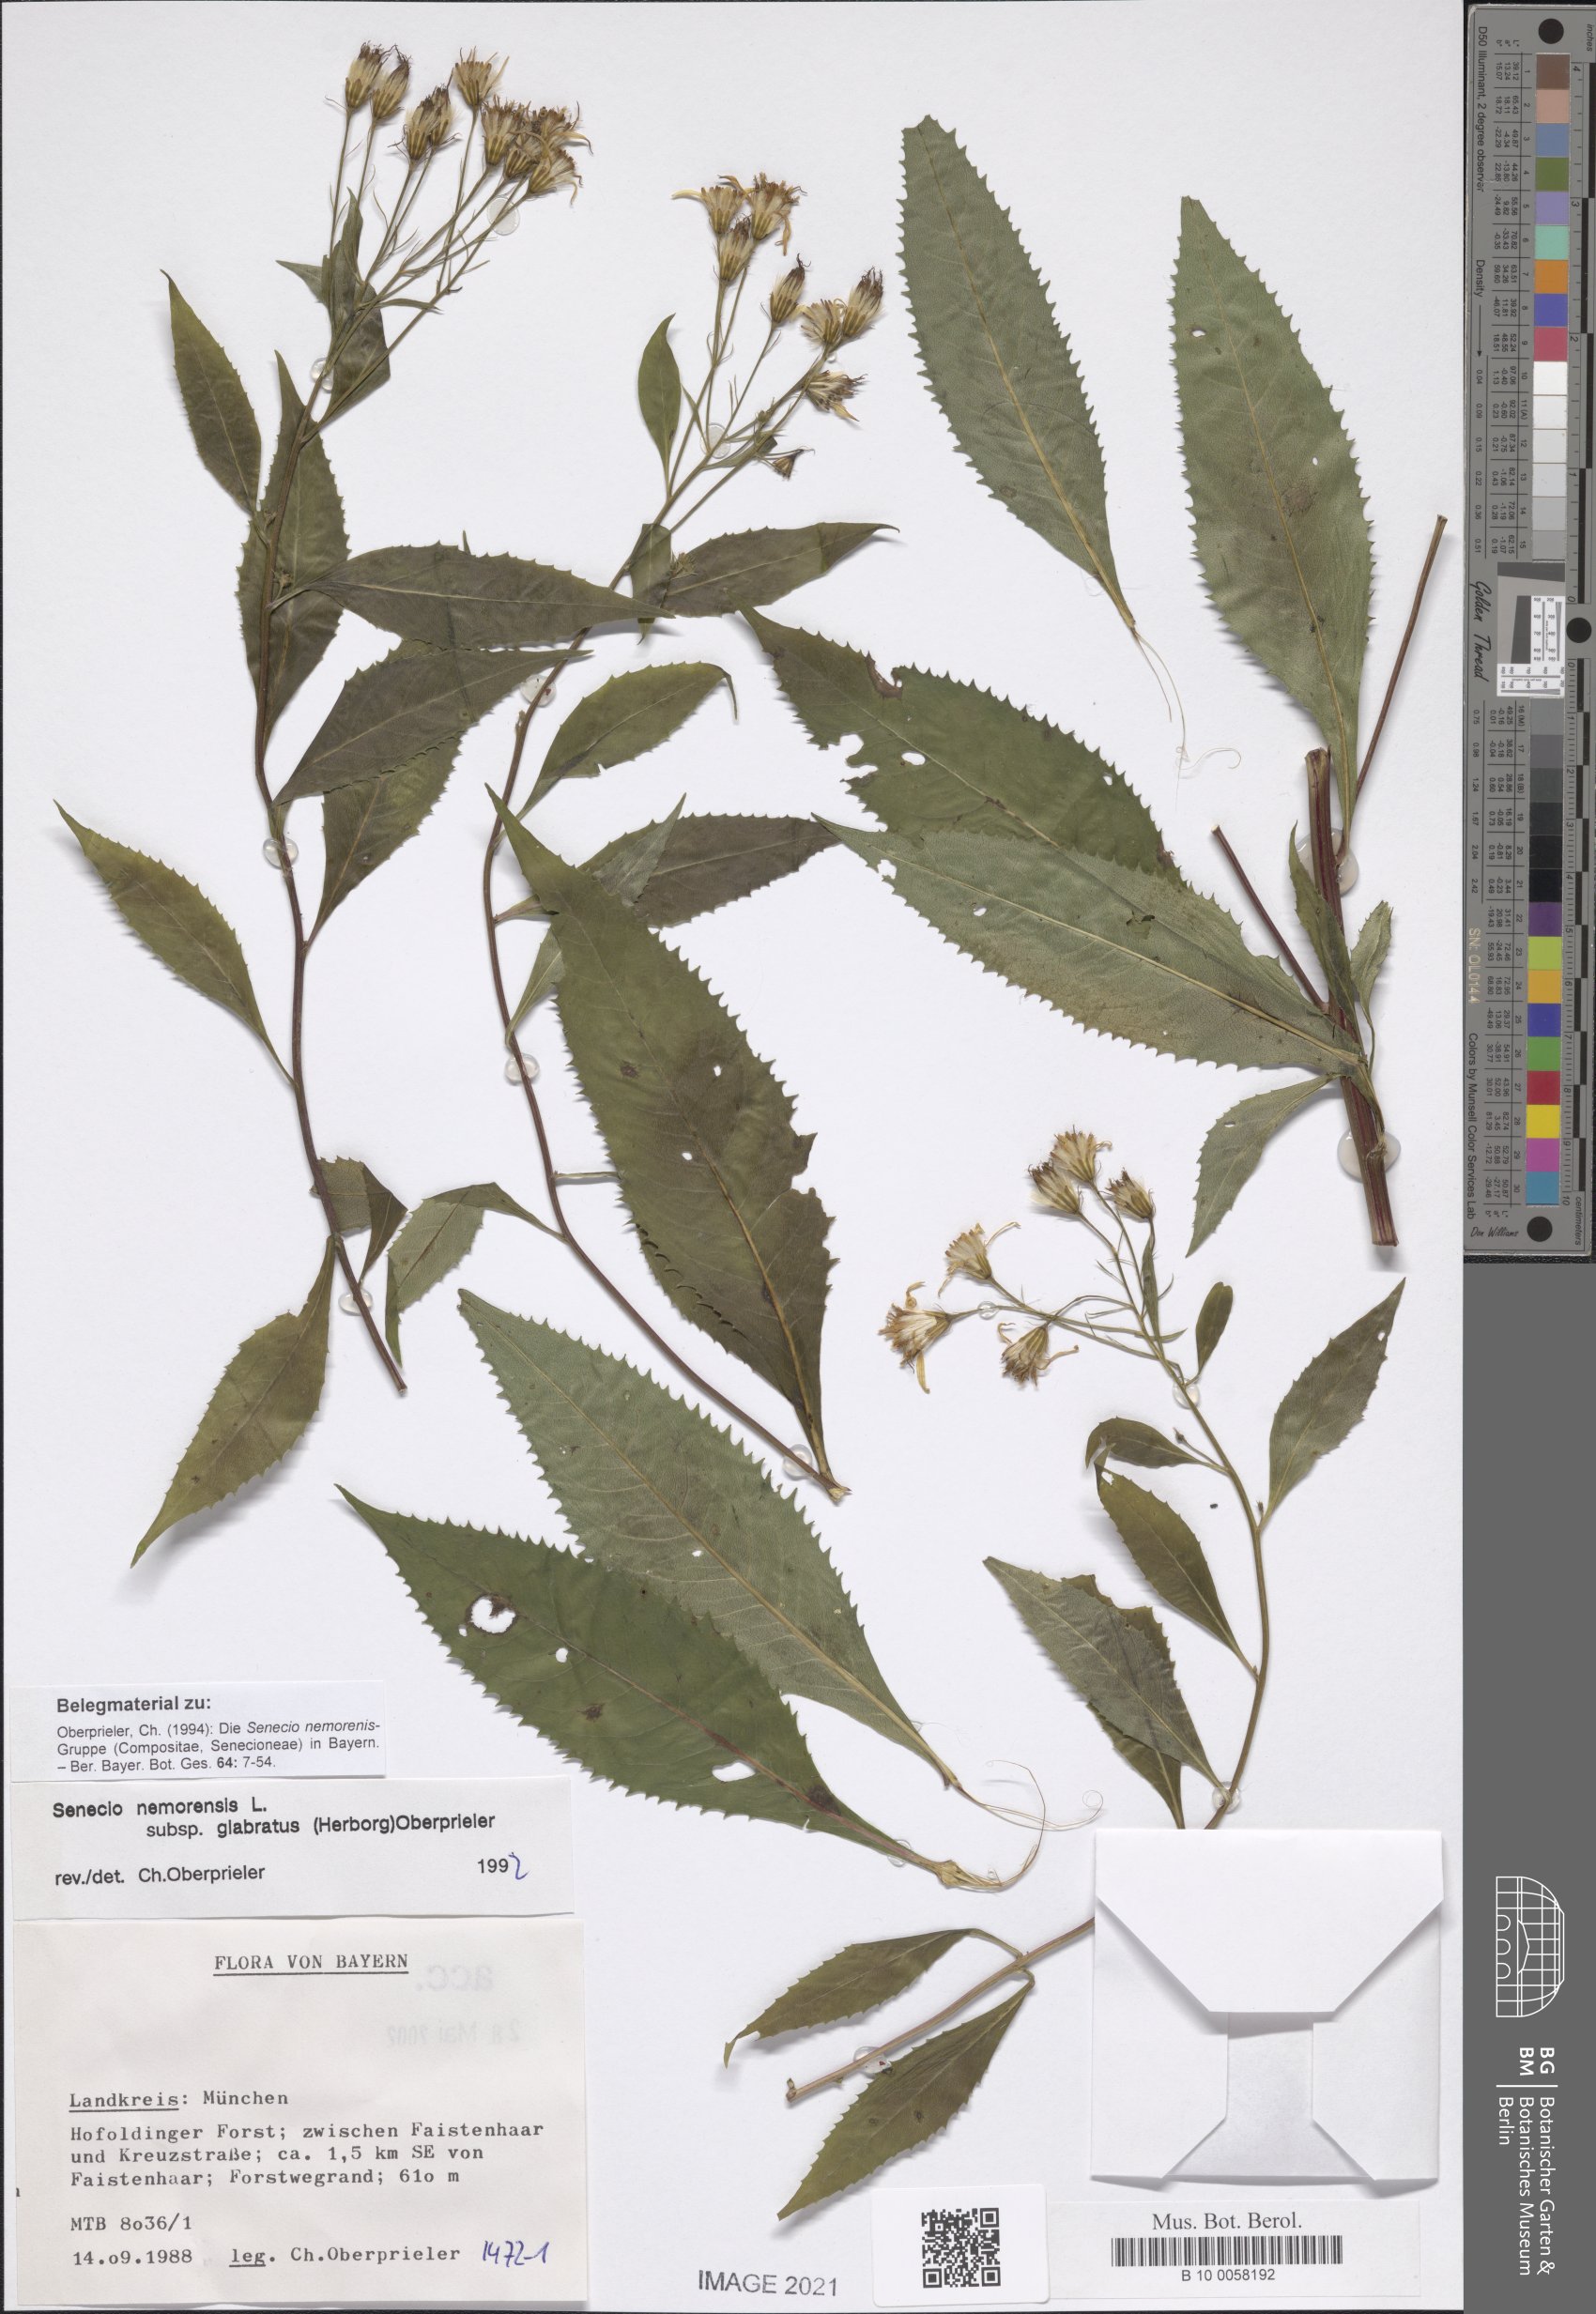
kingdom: Plantae
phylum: Tracheophyta
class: Magnoliopsida
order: Asterales
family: Asteraceae
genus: Senecio
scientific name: Senecio germanicus
